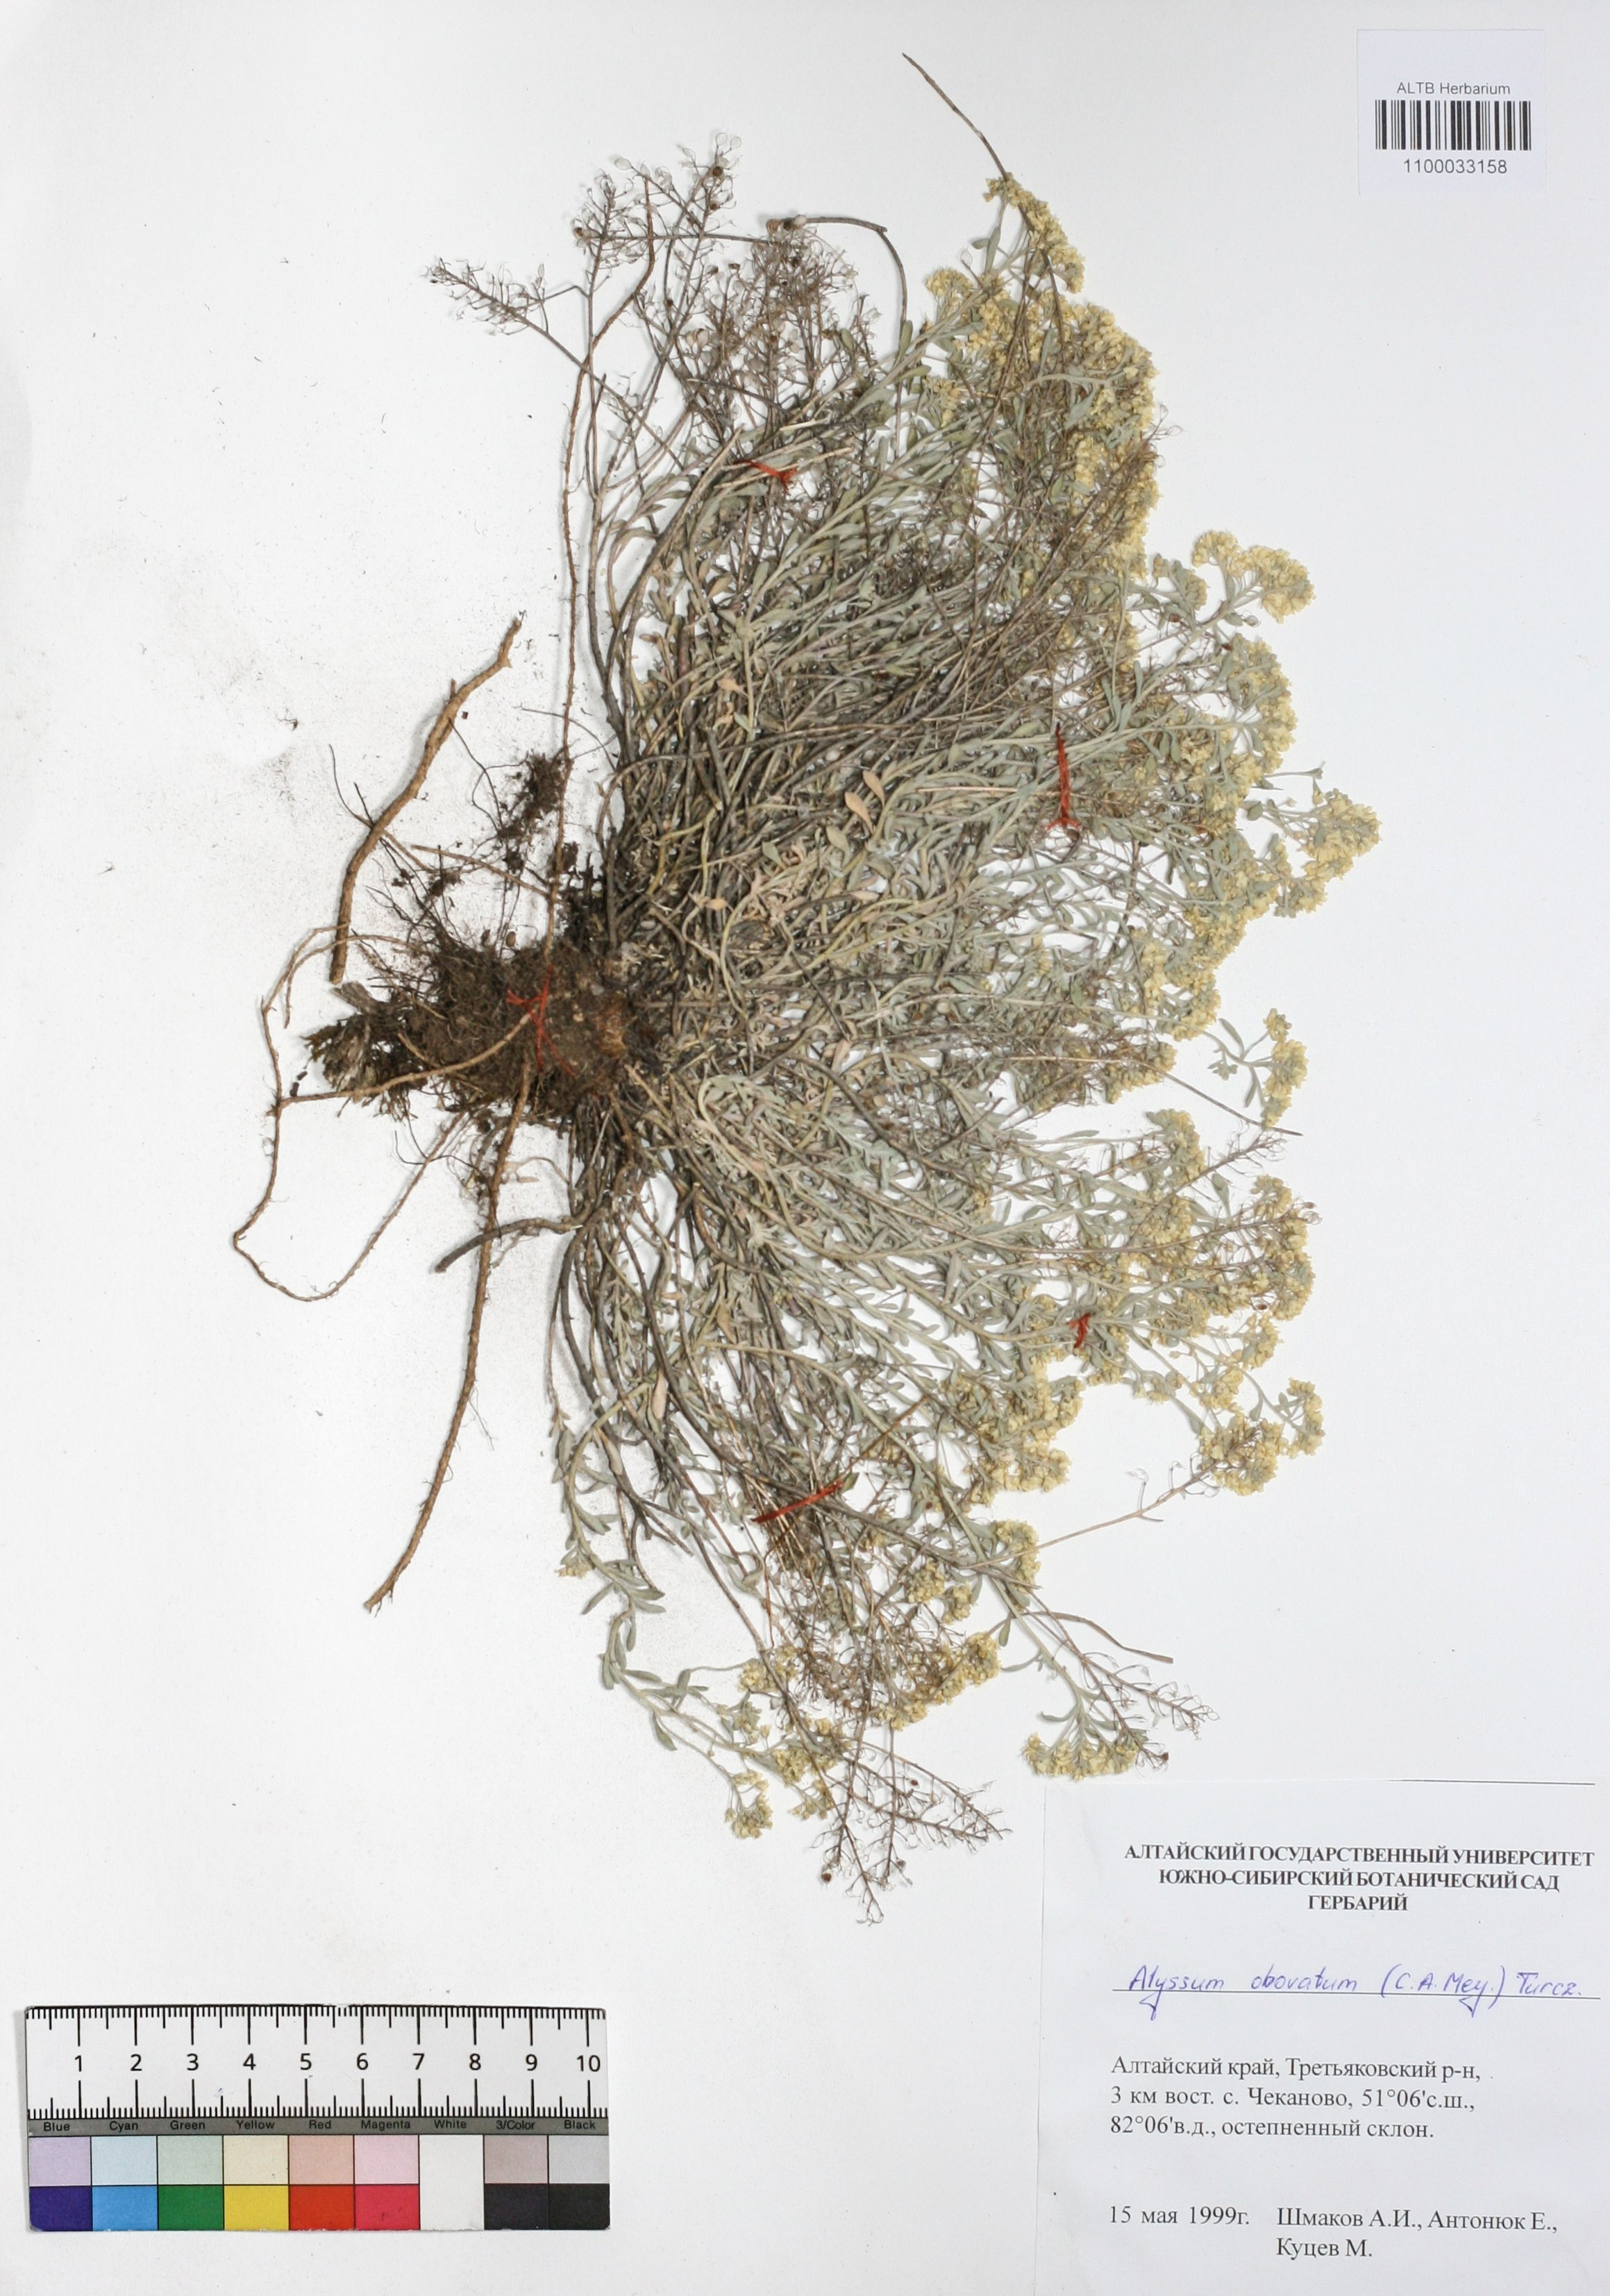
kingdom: Plantae
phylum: Tracheophyta
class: Magnoliopsida
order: Brassicales
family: Brassicaceae
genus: Odontarrhena
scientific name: Odontarrhena obovata
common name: American alyssum
